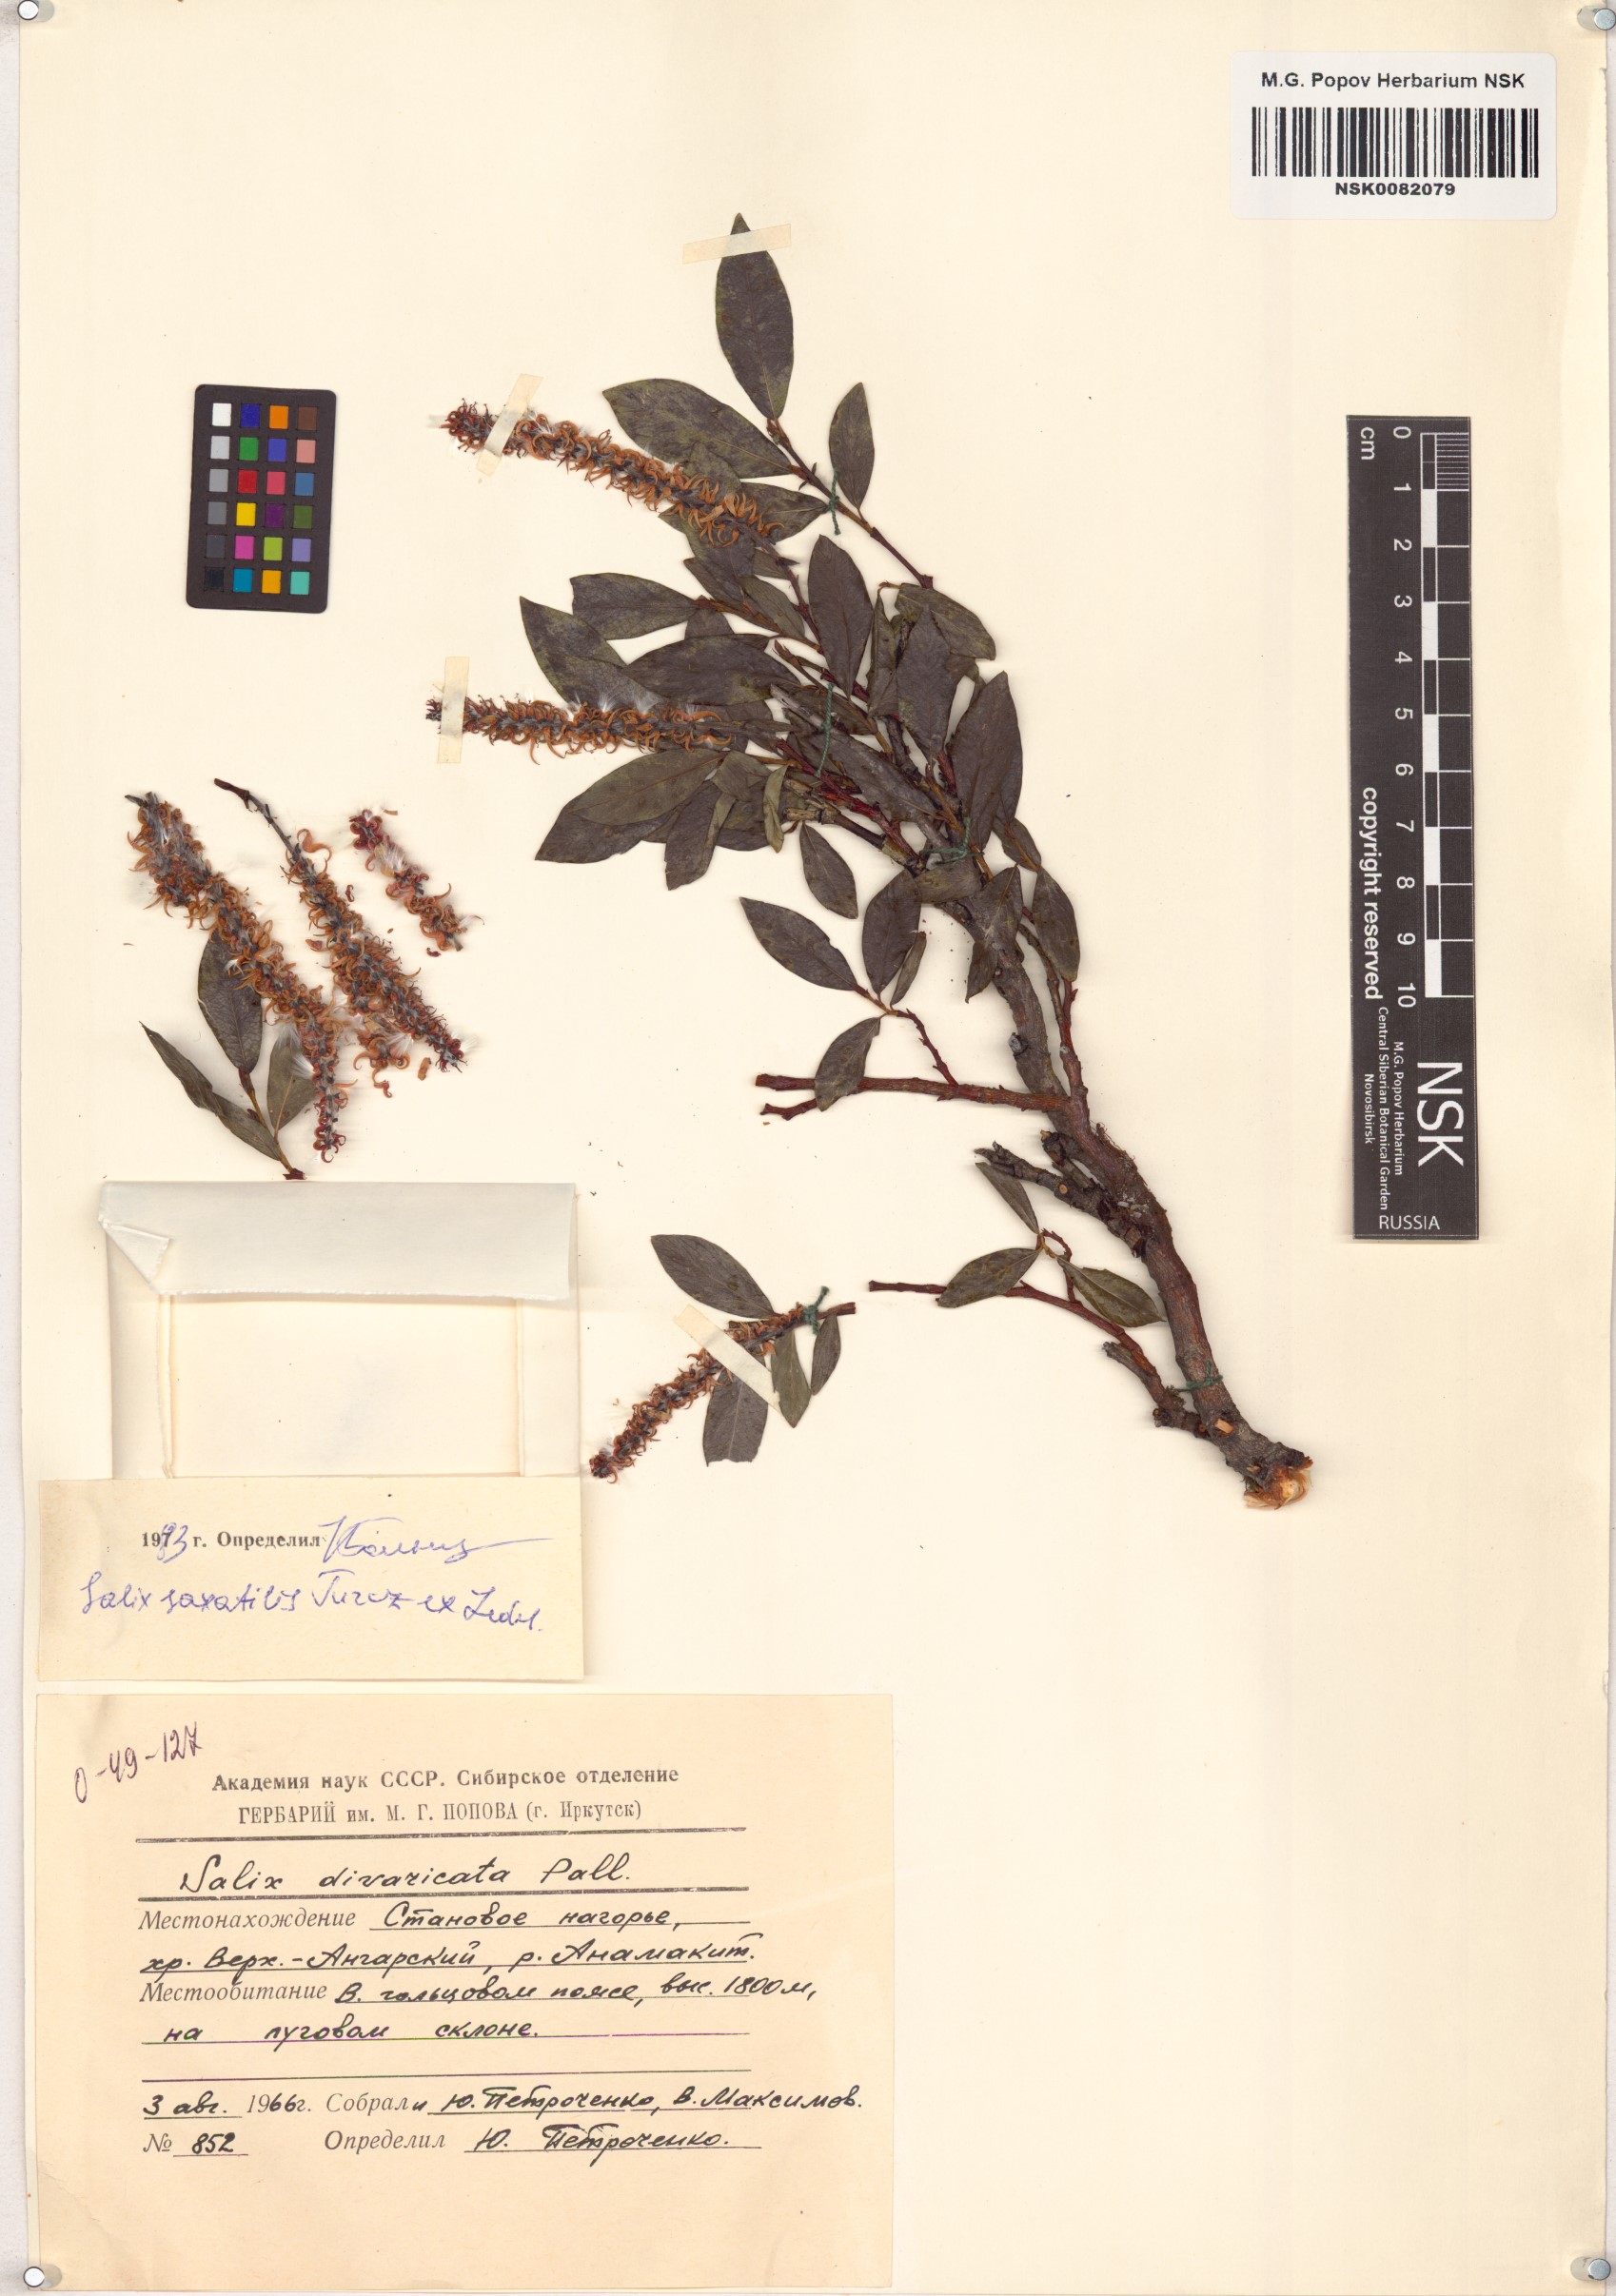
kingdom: Plantae
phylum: Tracheophyta
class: Magnoliopsida
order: Malpighiales
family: Salicaceae
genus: Salix
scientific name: Salix saxatilis
